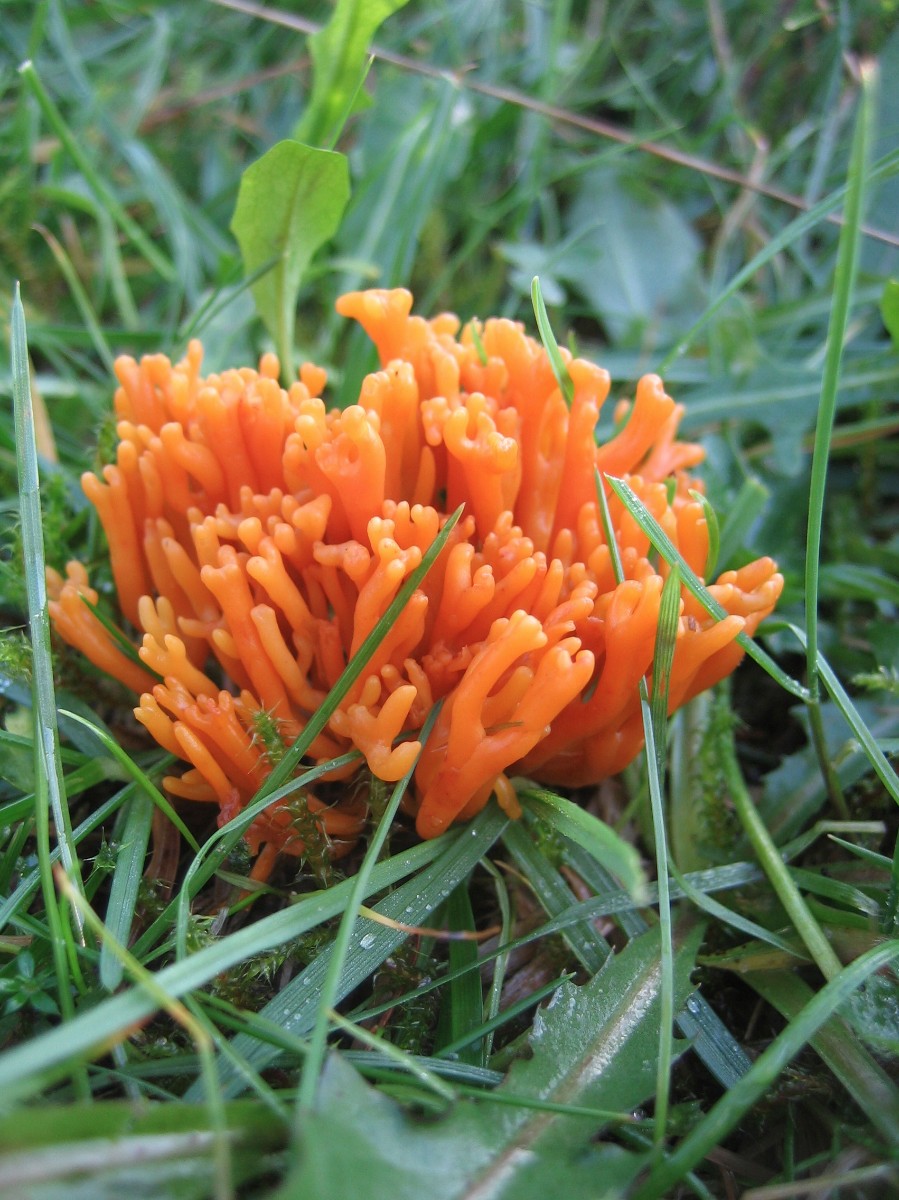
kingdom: Fungi
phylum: Basidiomycota
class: Agaricomycetes
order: Agaricales
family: Clavariaceae
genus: Clavulinopsis
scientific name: Clavulinopsis corniculata
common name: eng-køllesvamp
